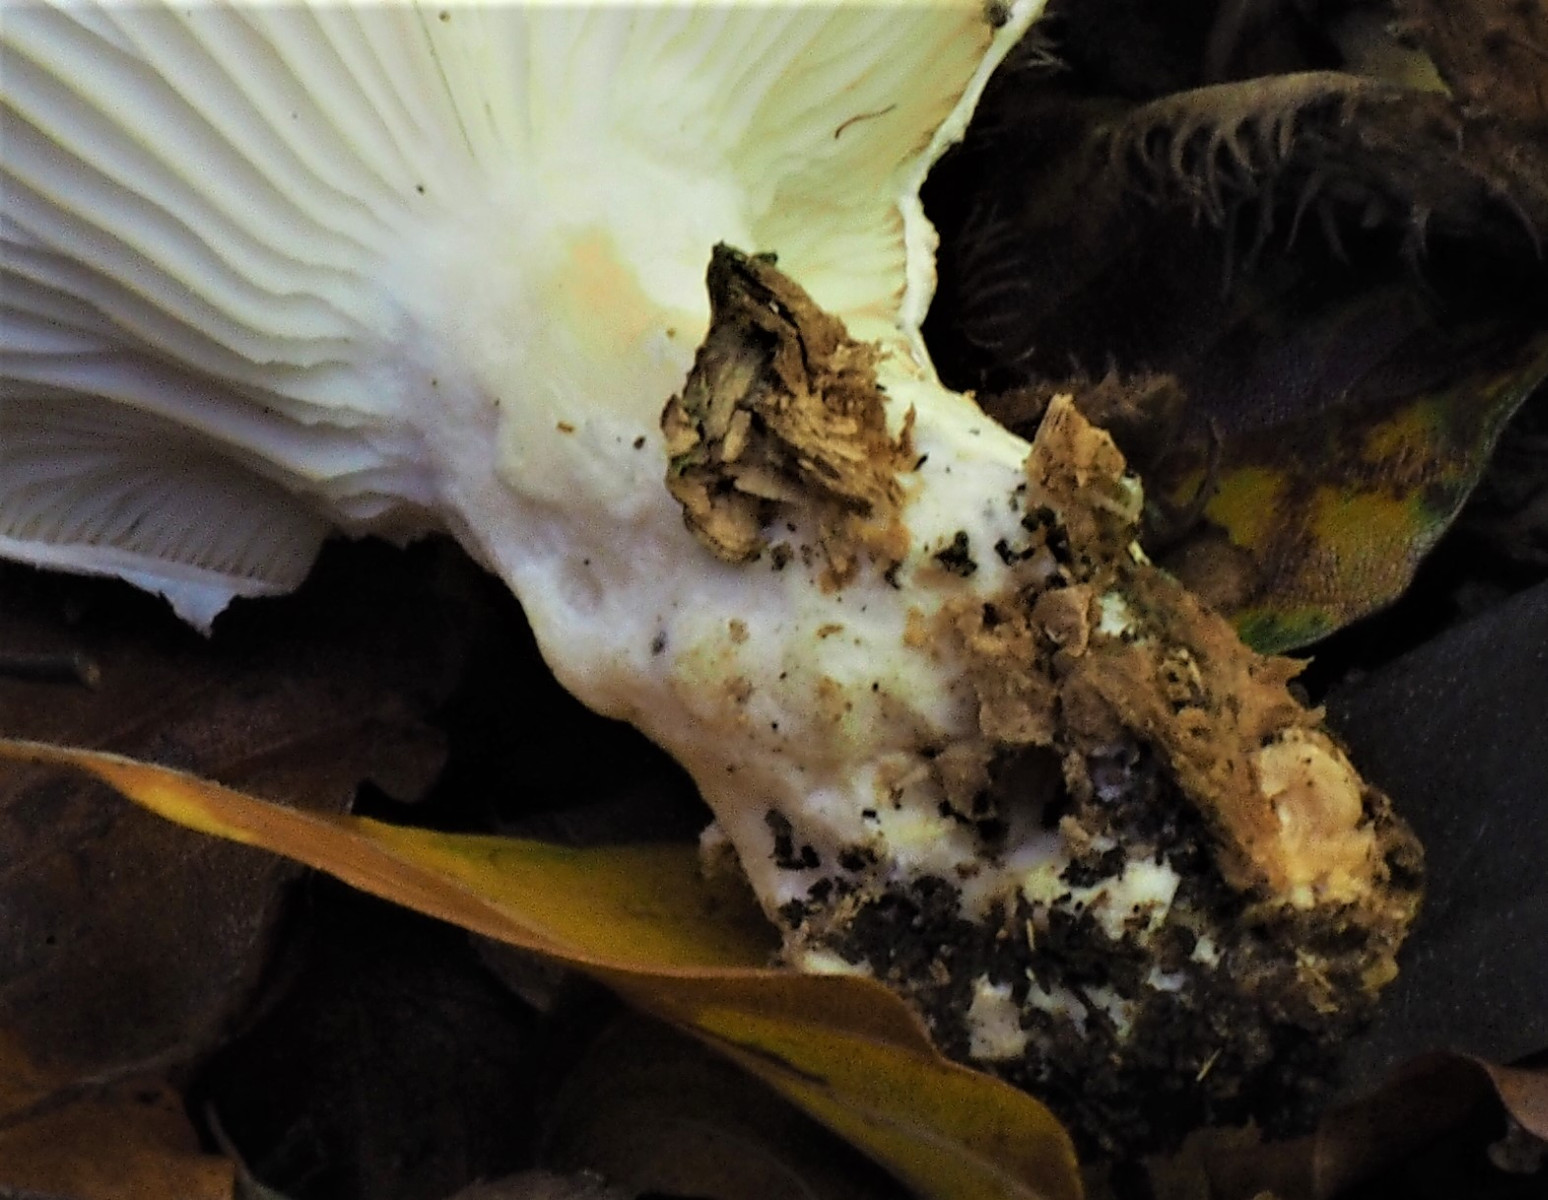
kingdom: Fungi
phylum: Basidiomycota
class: Agaricomycetes
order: Agaricales
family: Pleurotaceae
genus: Pleurotus
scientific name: Pleurotus dryinus
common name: korkagtig østershat
